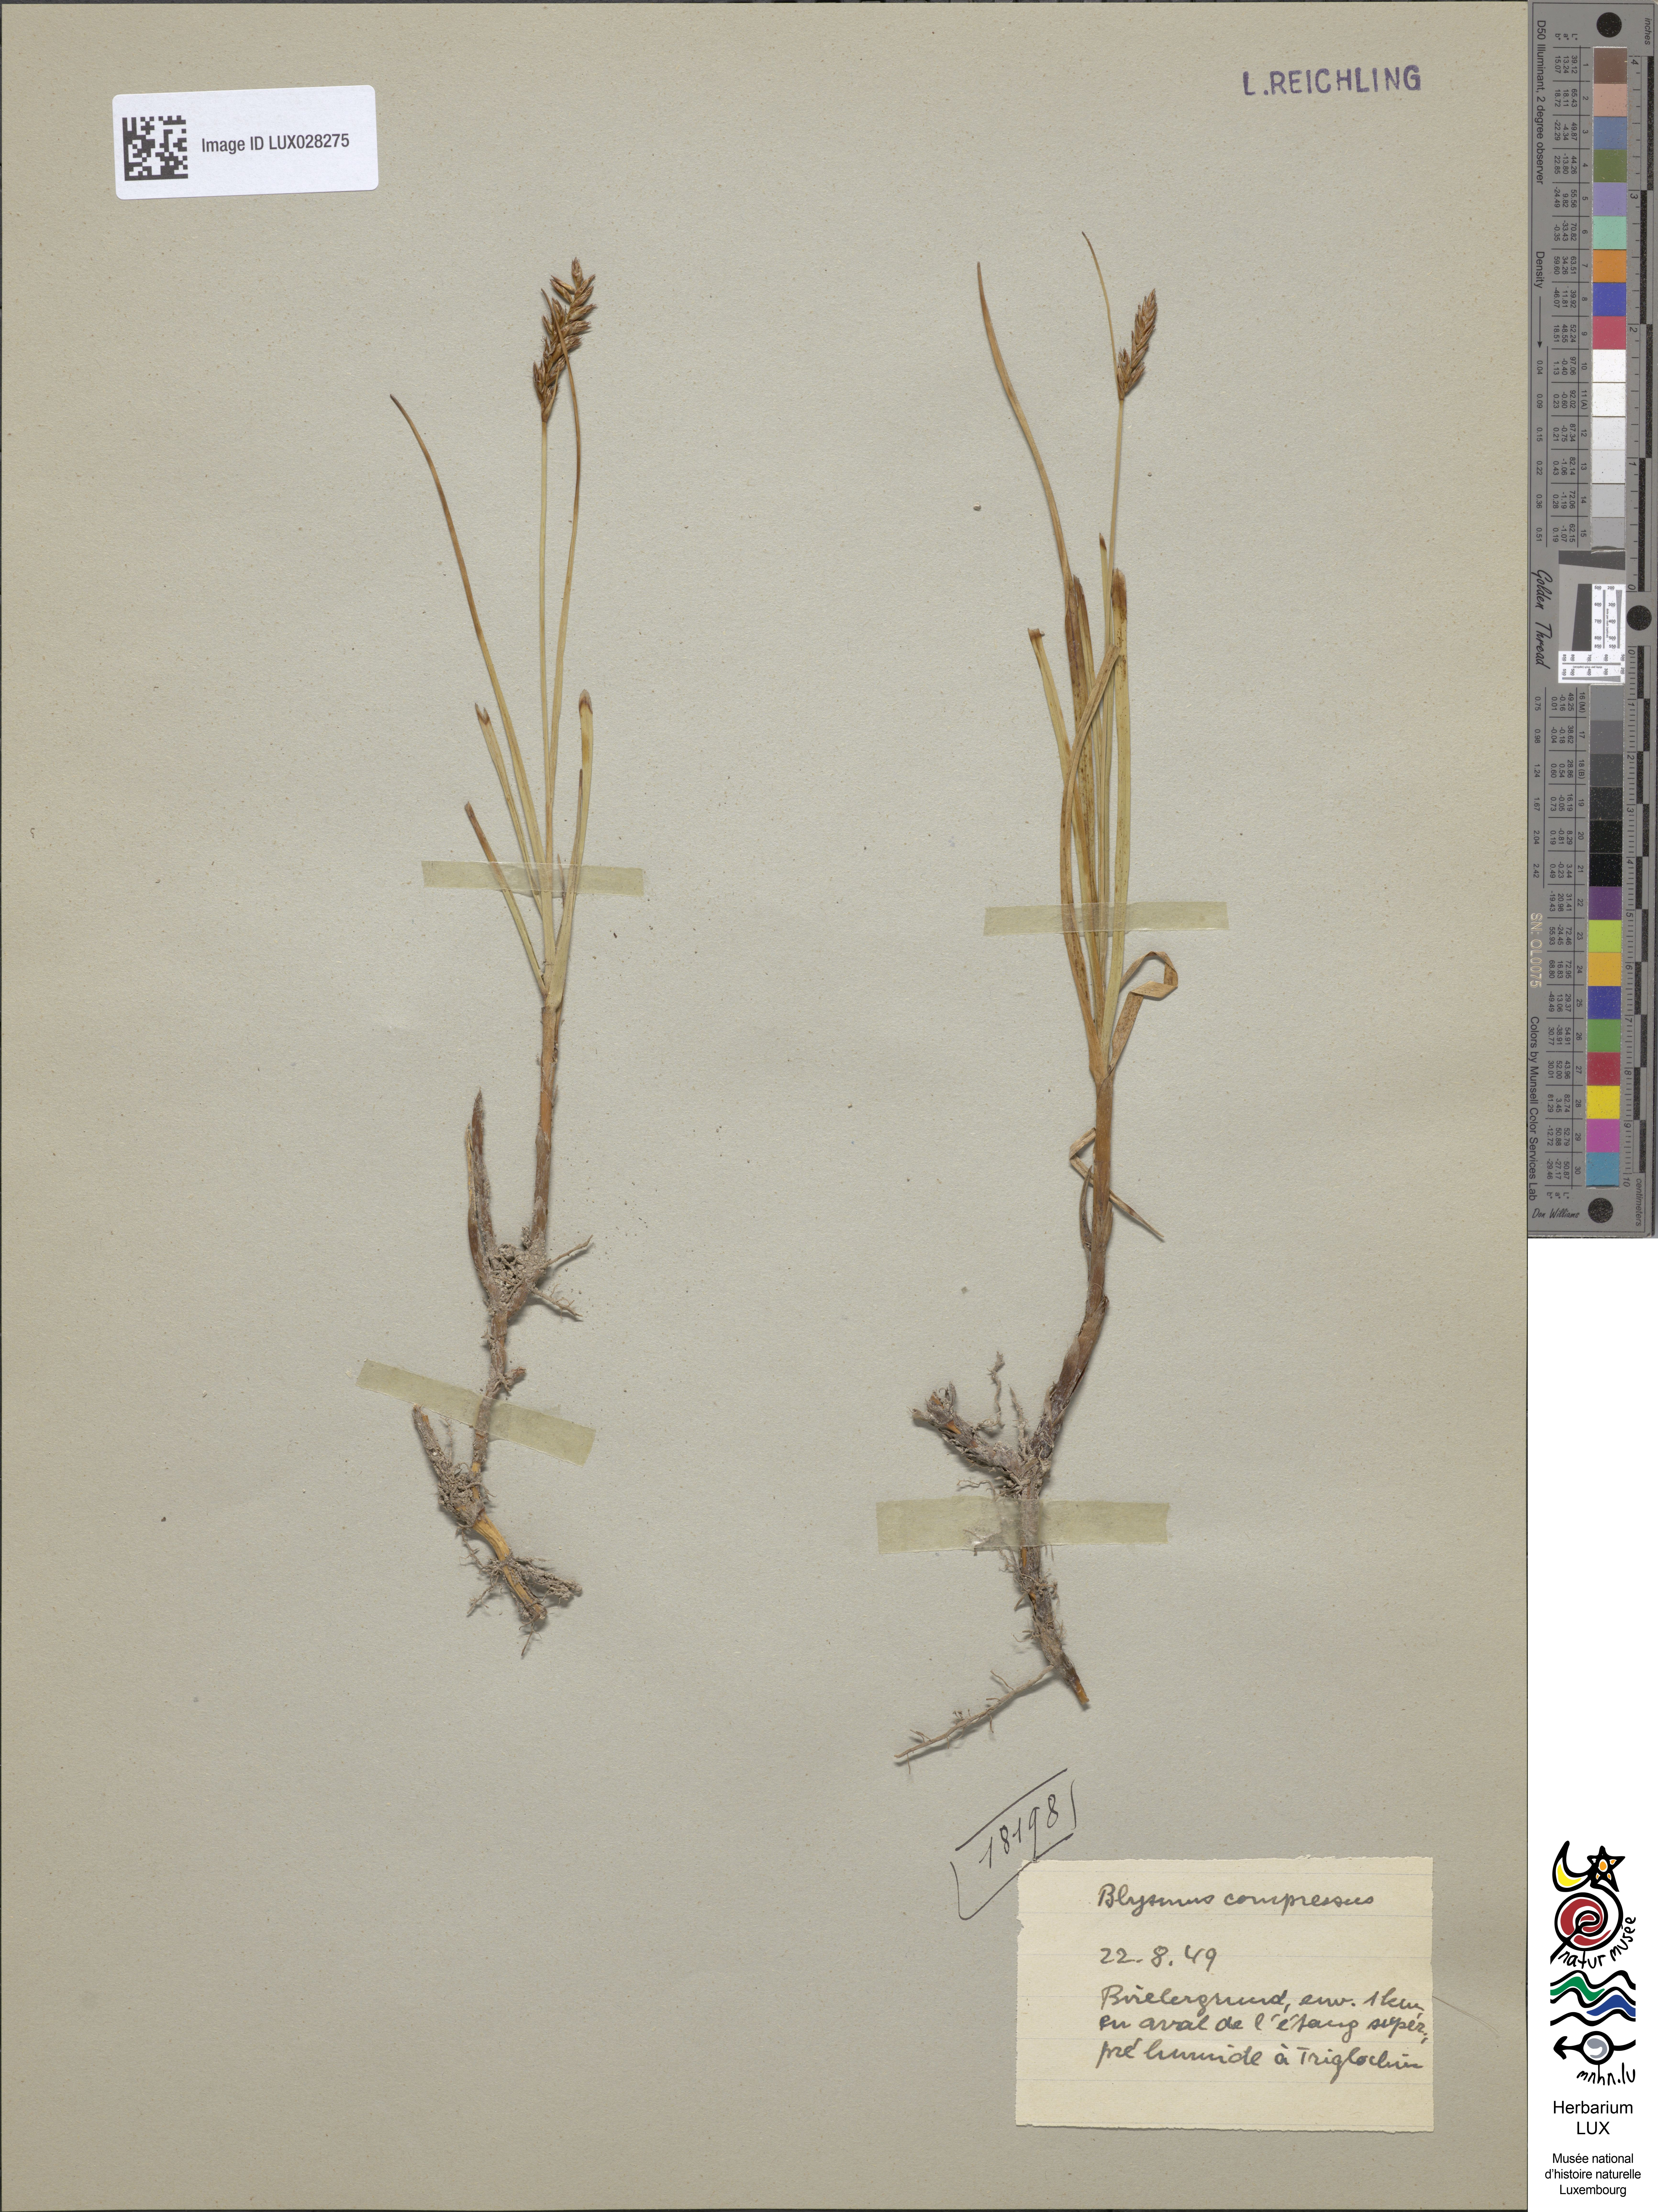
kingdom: Plantae
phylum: Tracheophyta
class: Liliopsida
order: Poales
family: Cyperaceae
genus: Blysmus
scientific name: Blysmus compressus
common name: Flat-sedge
